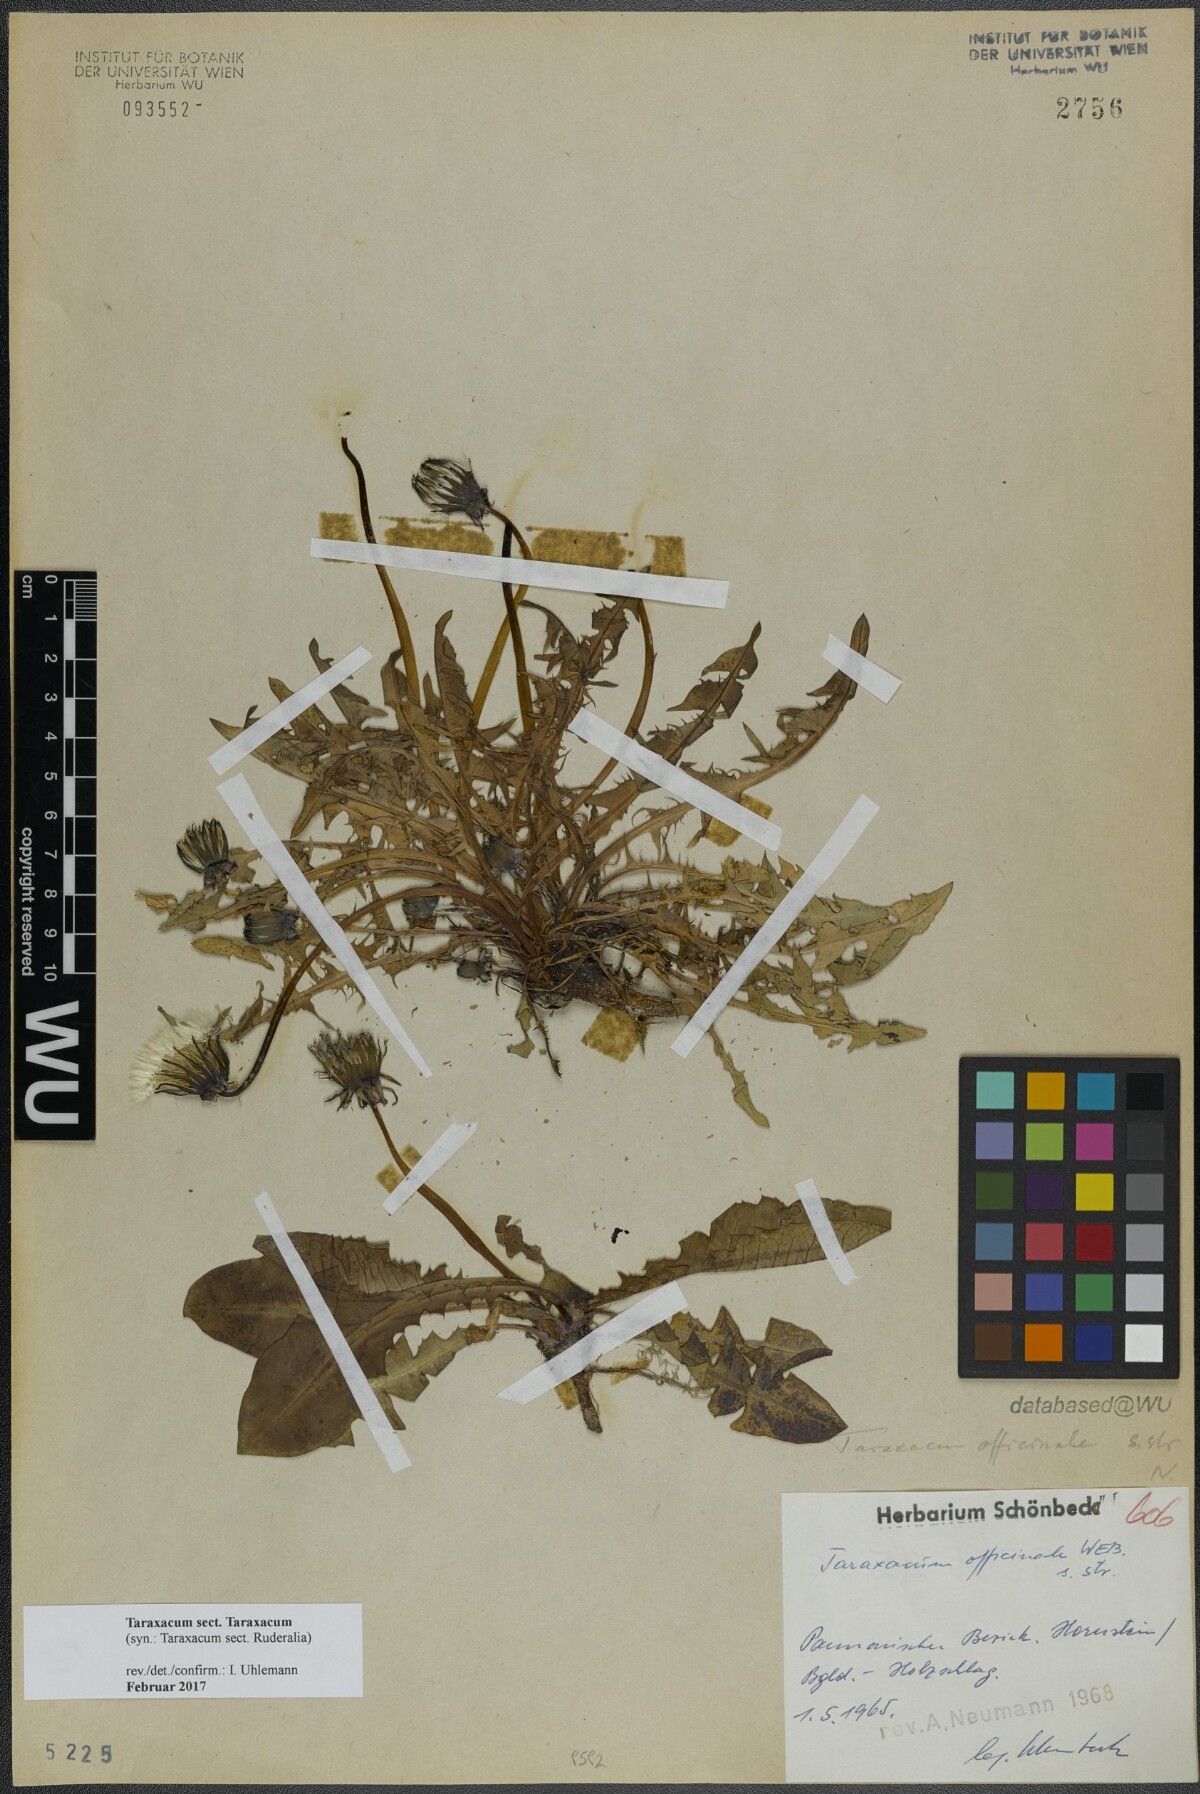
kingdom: Plantae
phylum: Tracheophyta
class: Magnoliopsida
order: Asterales
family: Asteraceae
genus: Taraxacum
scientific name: Taraxacum
